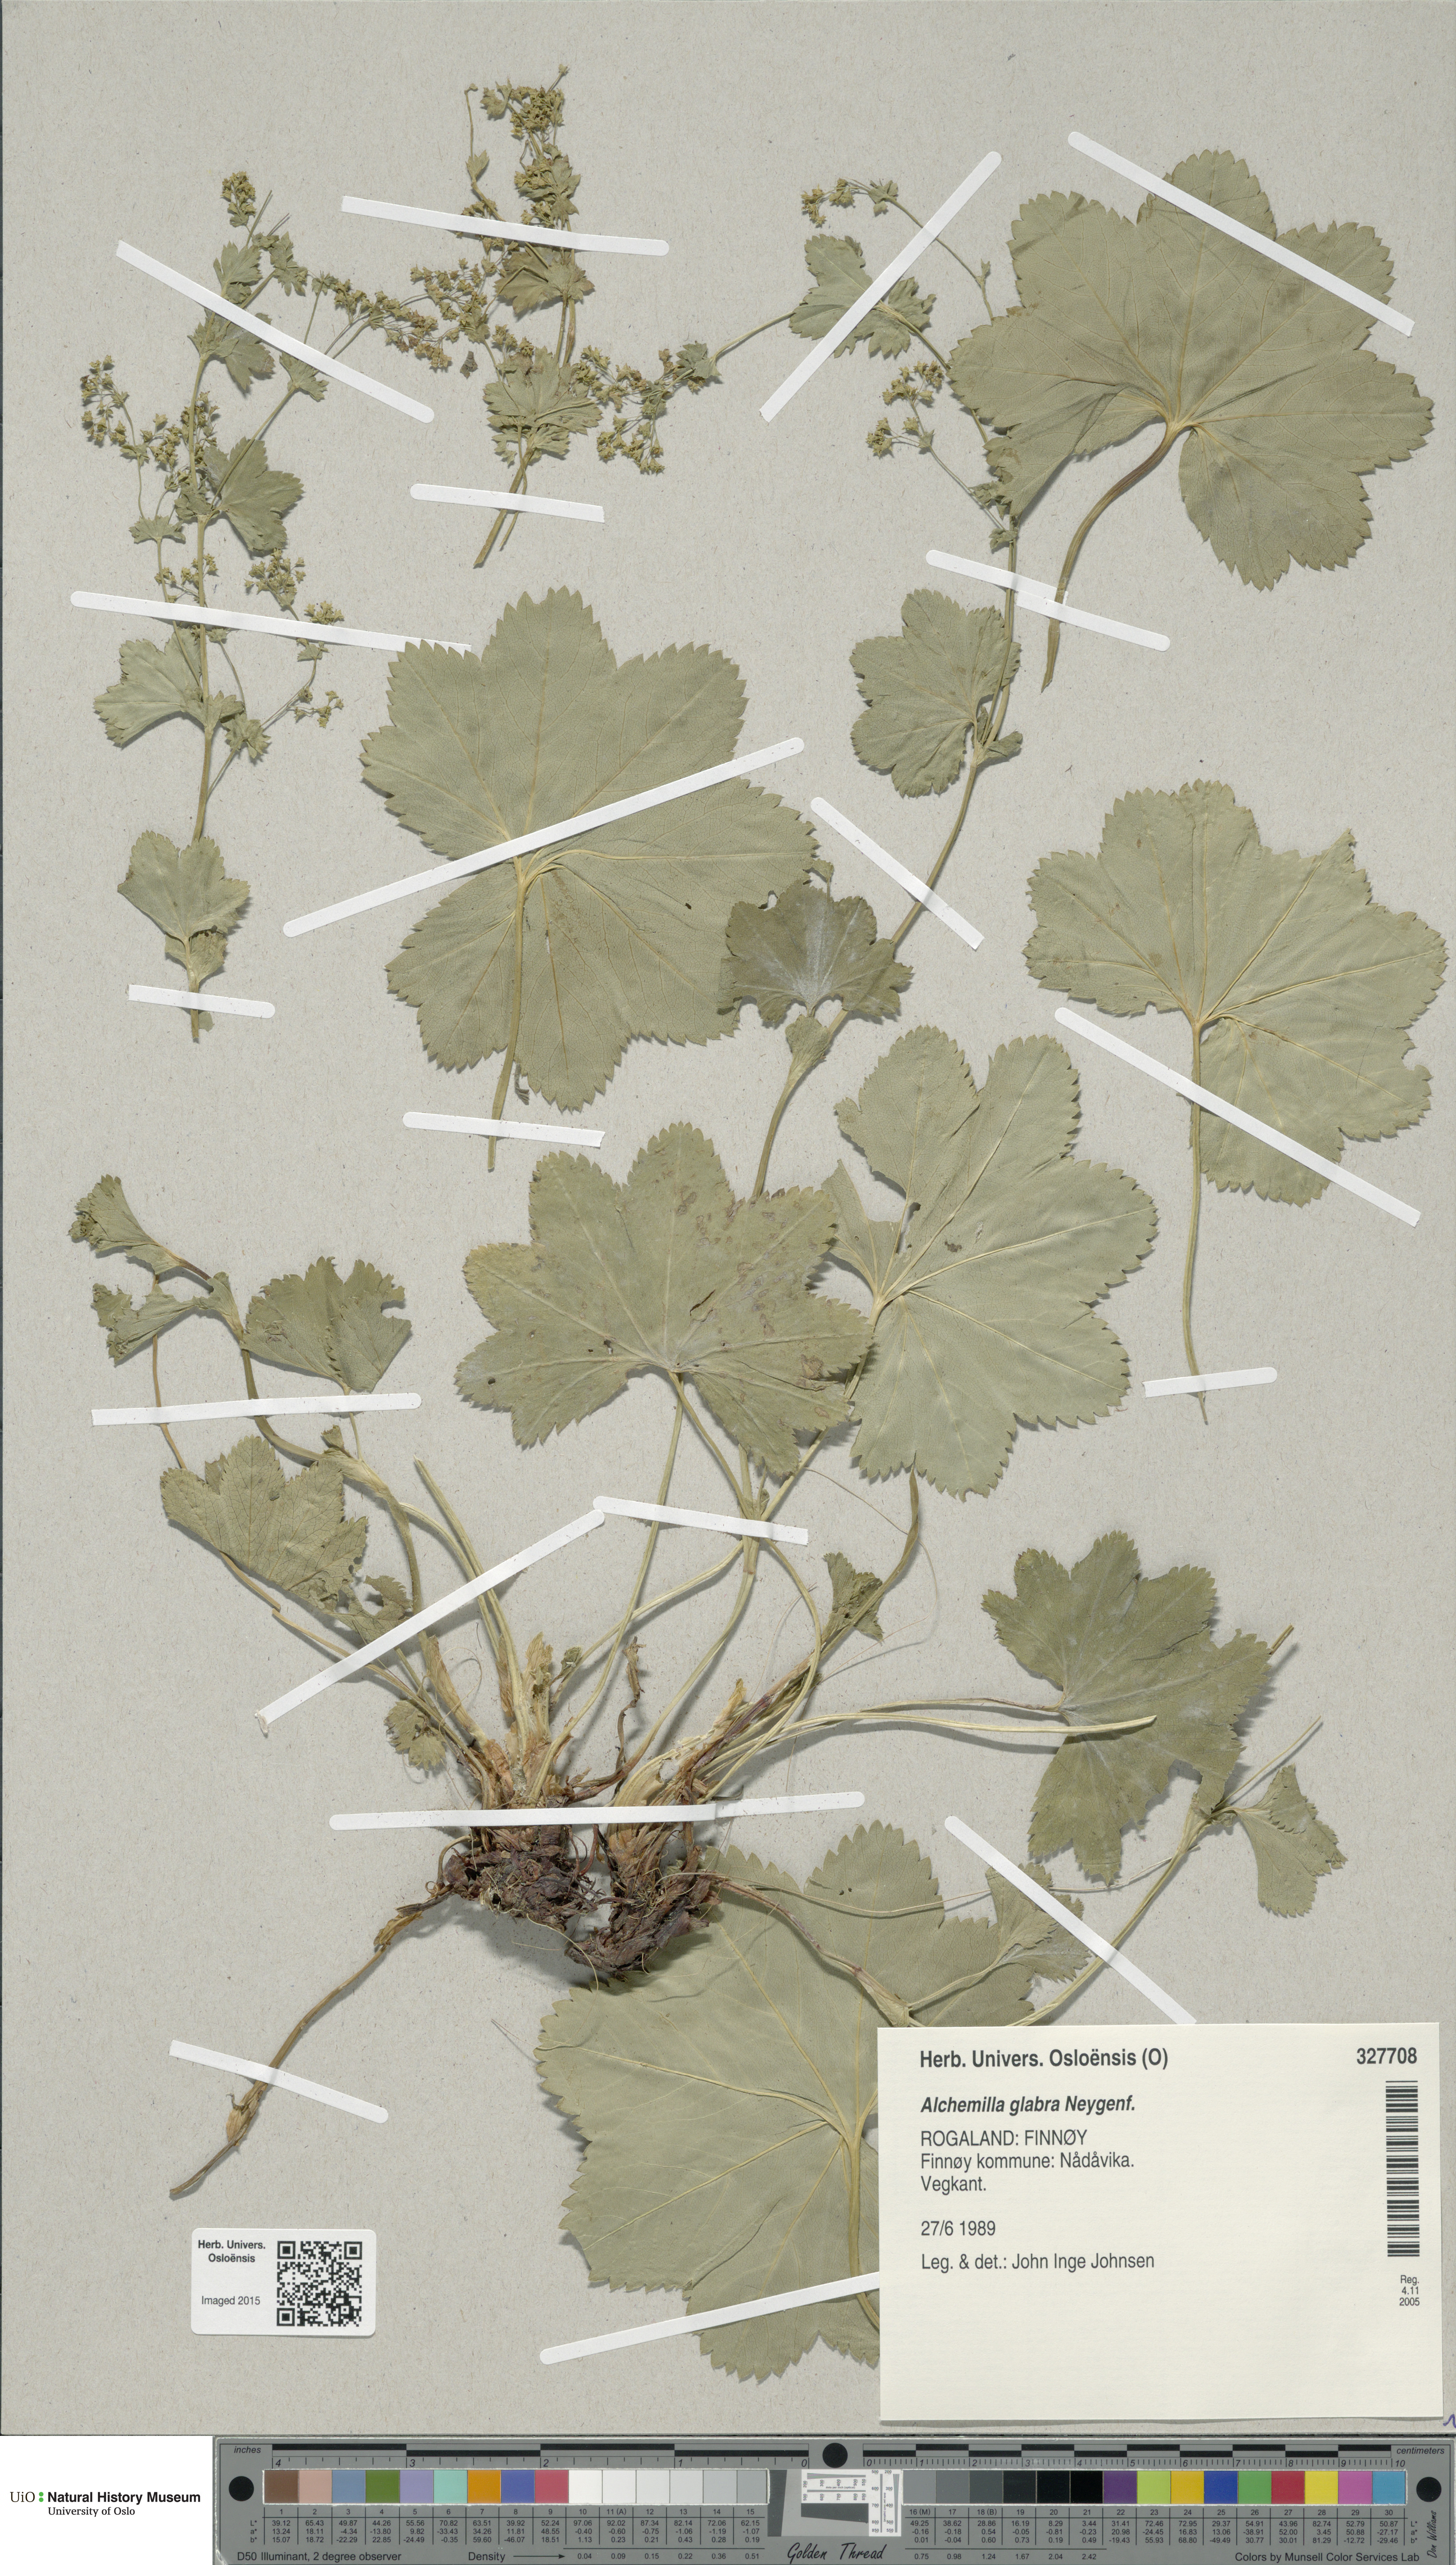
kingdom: Plantae
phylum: Tracheophyta
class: Magnoliopsida
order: Rosales
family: Rosaceae
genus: Alchemilla
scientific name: Alchemilla glabra
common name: Smooth lady's-mantle
